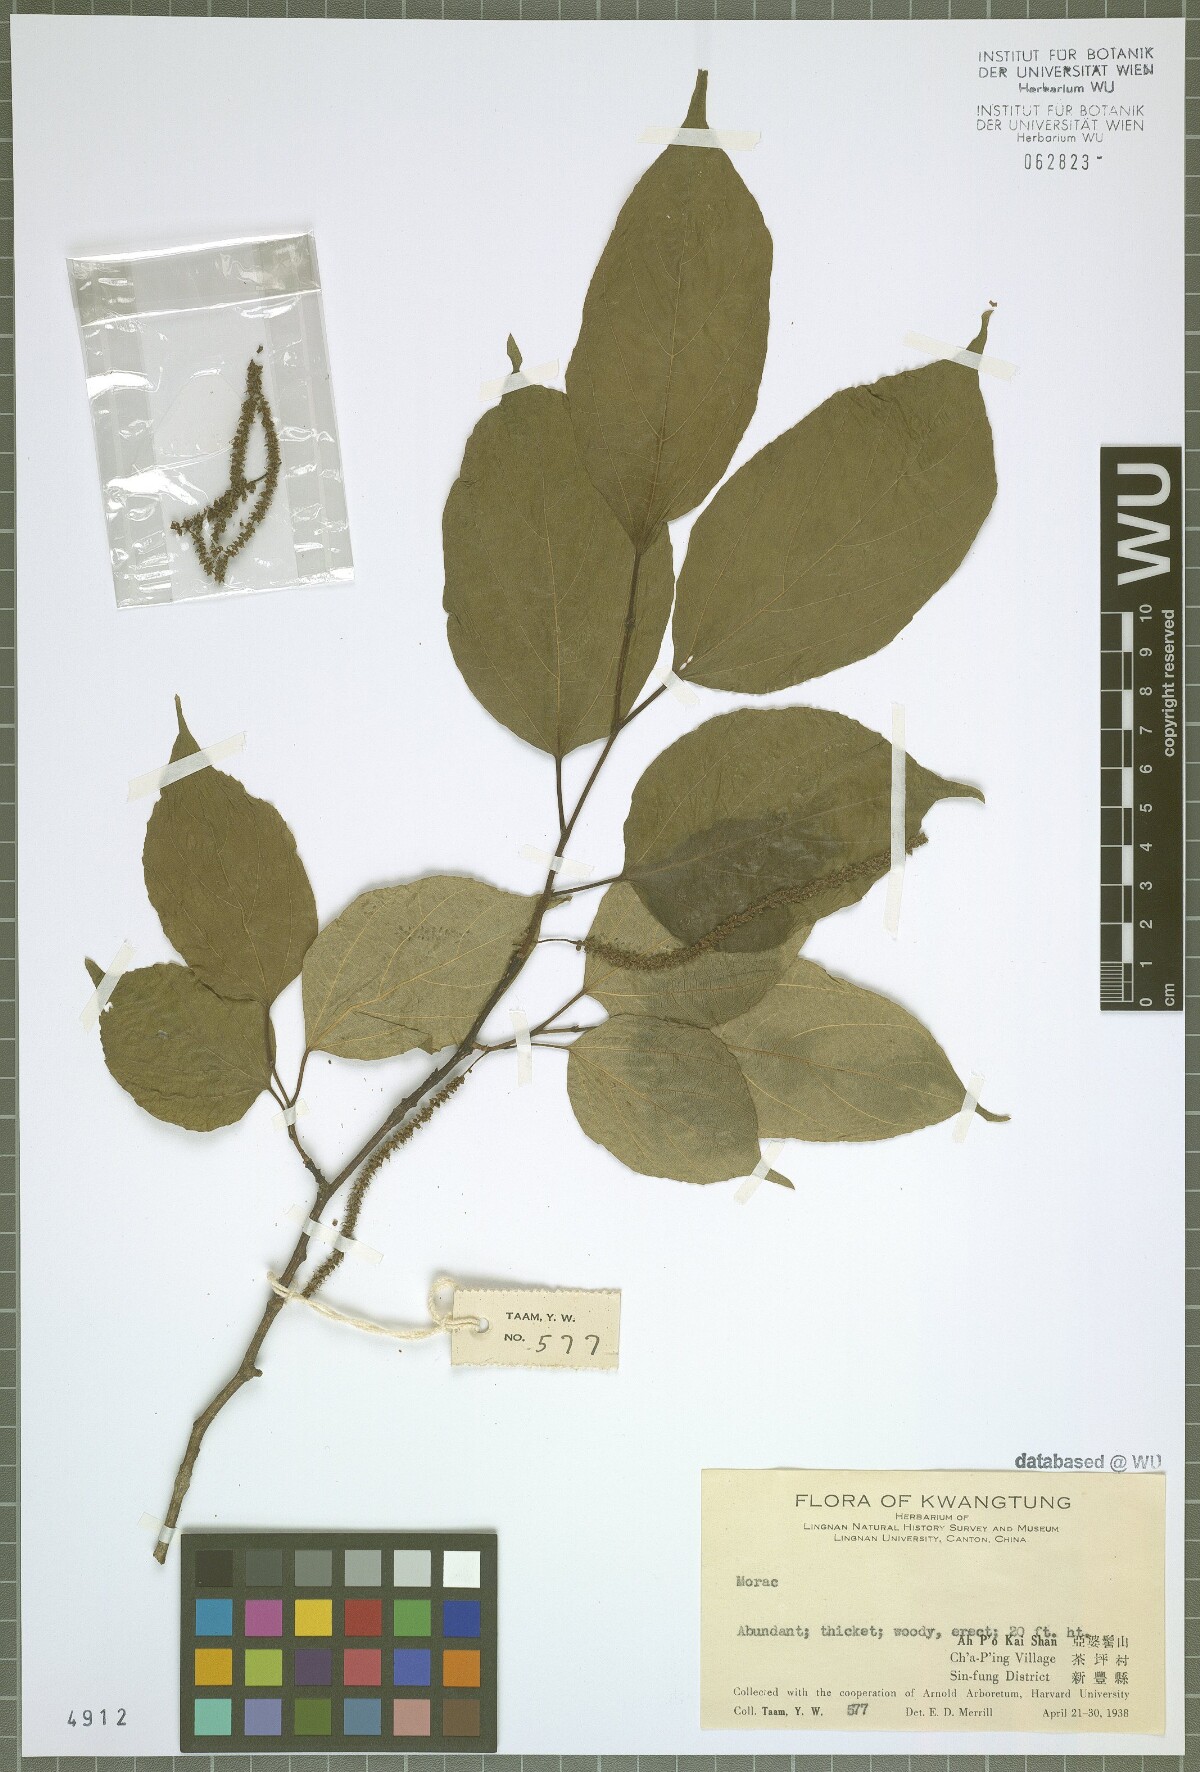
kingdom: Plantae
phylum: Tracheophyta
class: Magnoliopsida
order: Rosales
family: Moraceae
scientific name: Moraceae
